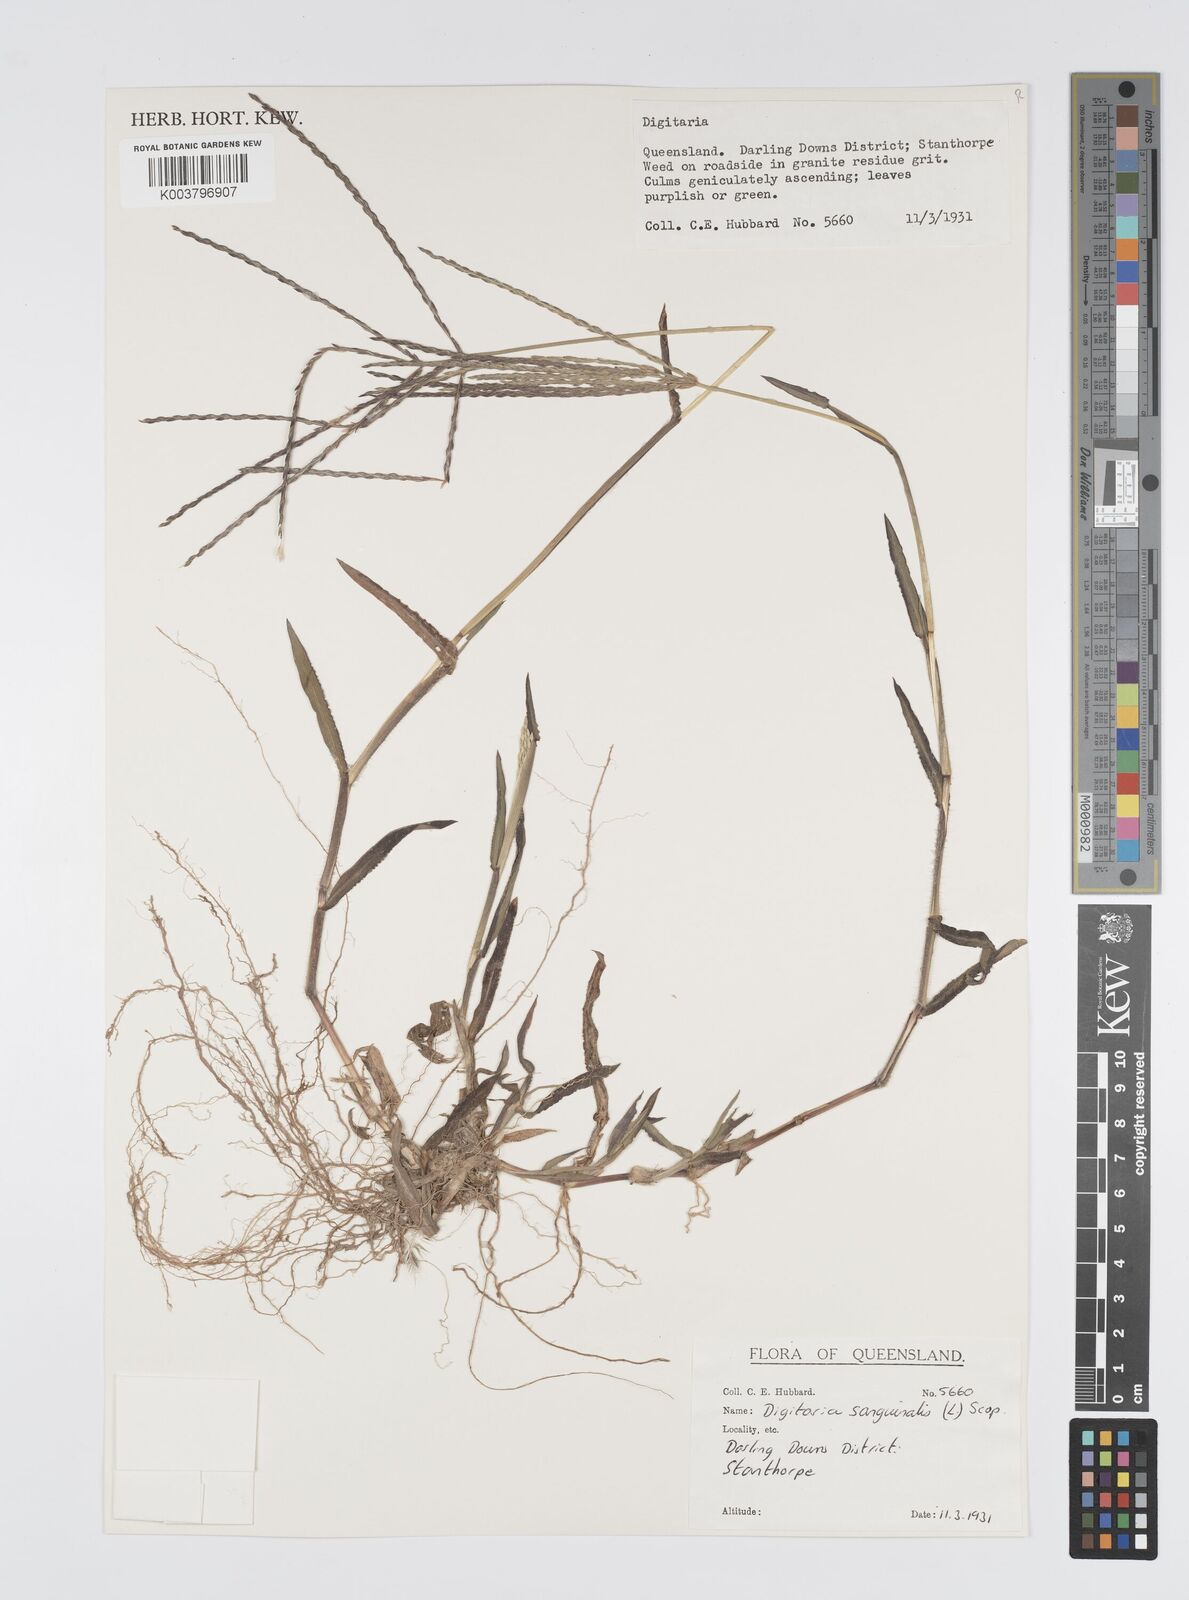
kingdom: Plantae
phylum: Tracheophyta
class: Liliopsida
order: Poales
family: Poaceae
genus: Digitaria
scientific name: Digitaria sanguinalis
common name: Hairy crabgrass
